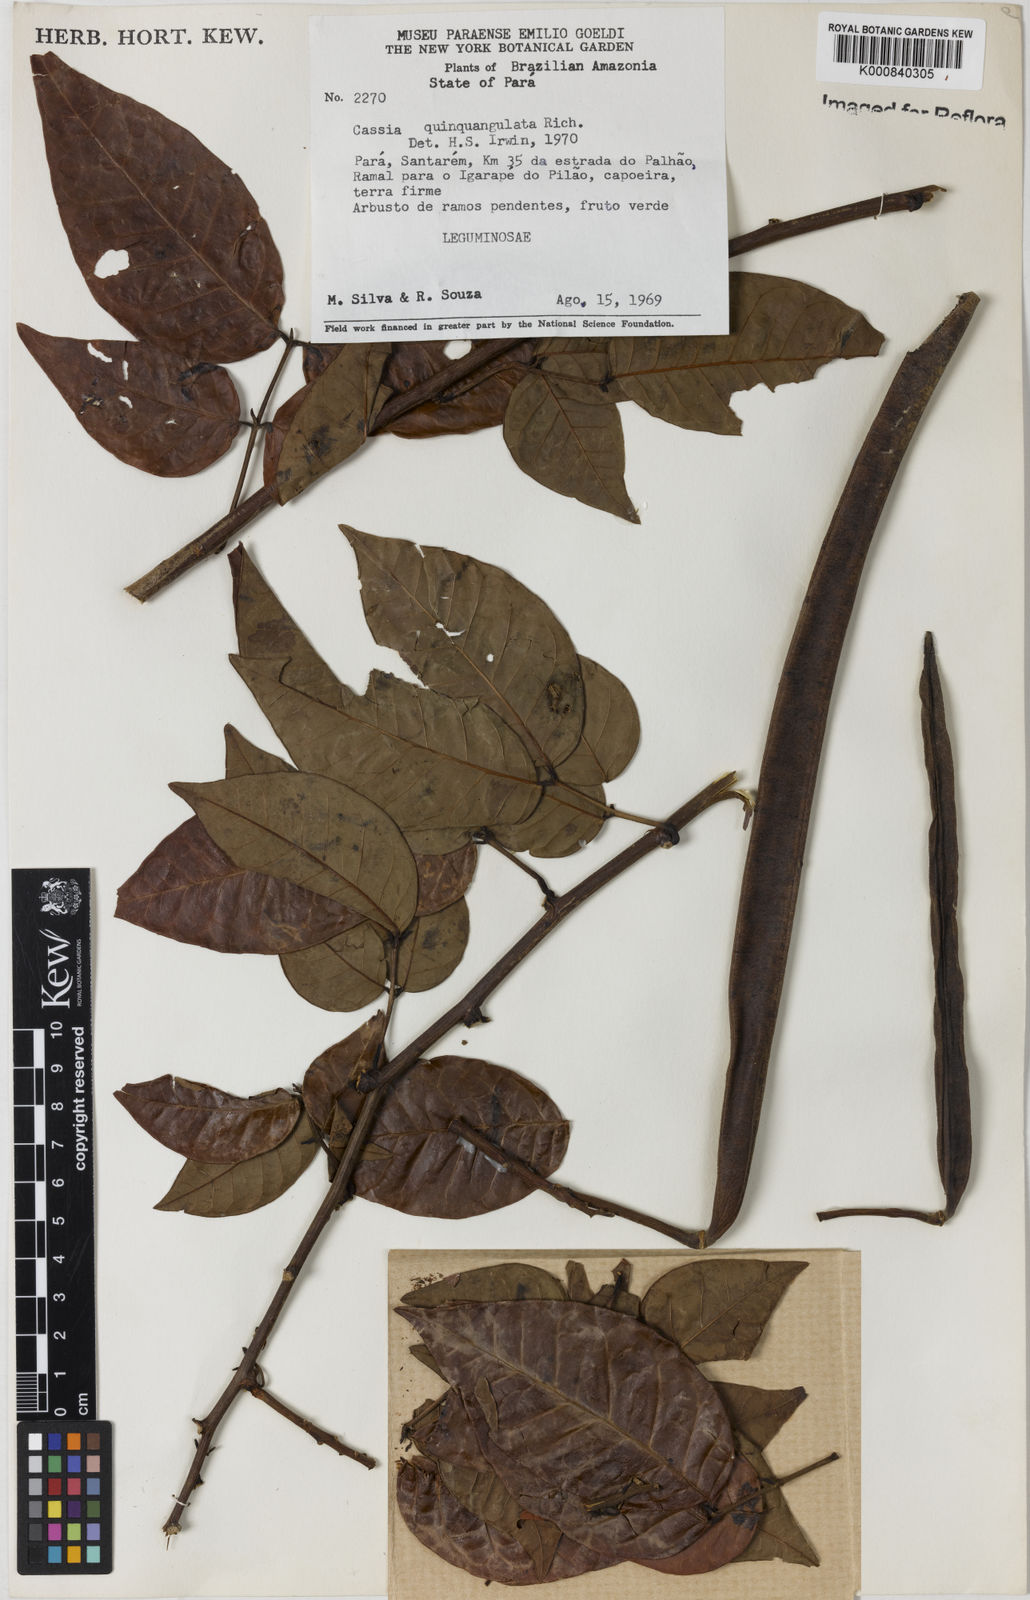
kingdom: Plantae
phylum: Tracheophyta
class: Magnoliopsida
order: Fabales
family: Fabaceae
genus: Senna
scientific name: Senna
